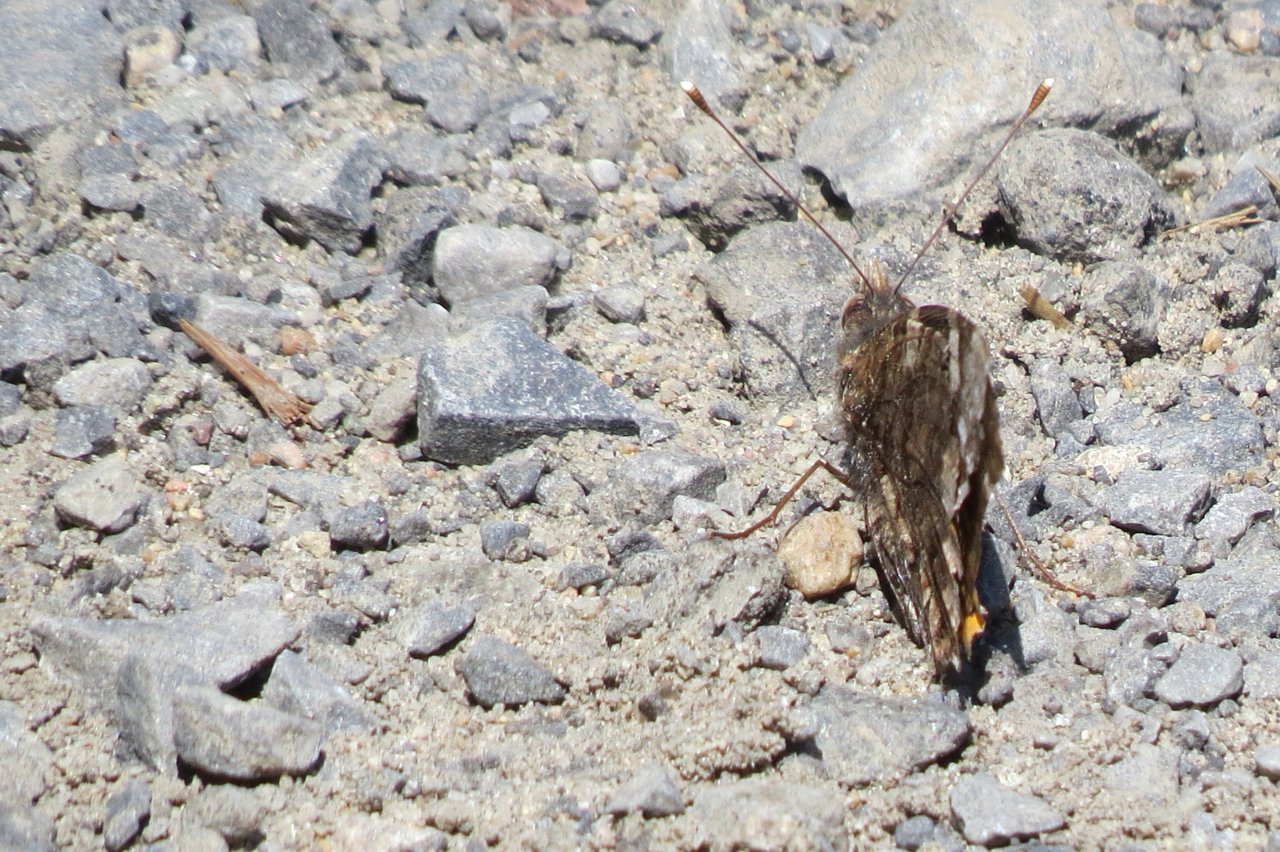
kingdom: Animalia
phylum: Arthropoda
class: Insecta
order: Lepidoptera
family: Nymphalidae
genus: Vanessa
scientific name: Vanessa atalanta
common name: Red Admiral
